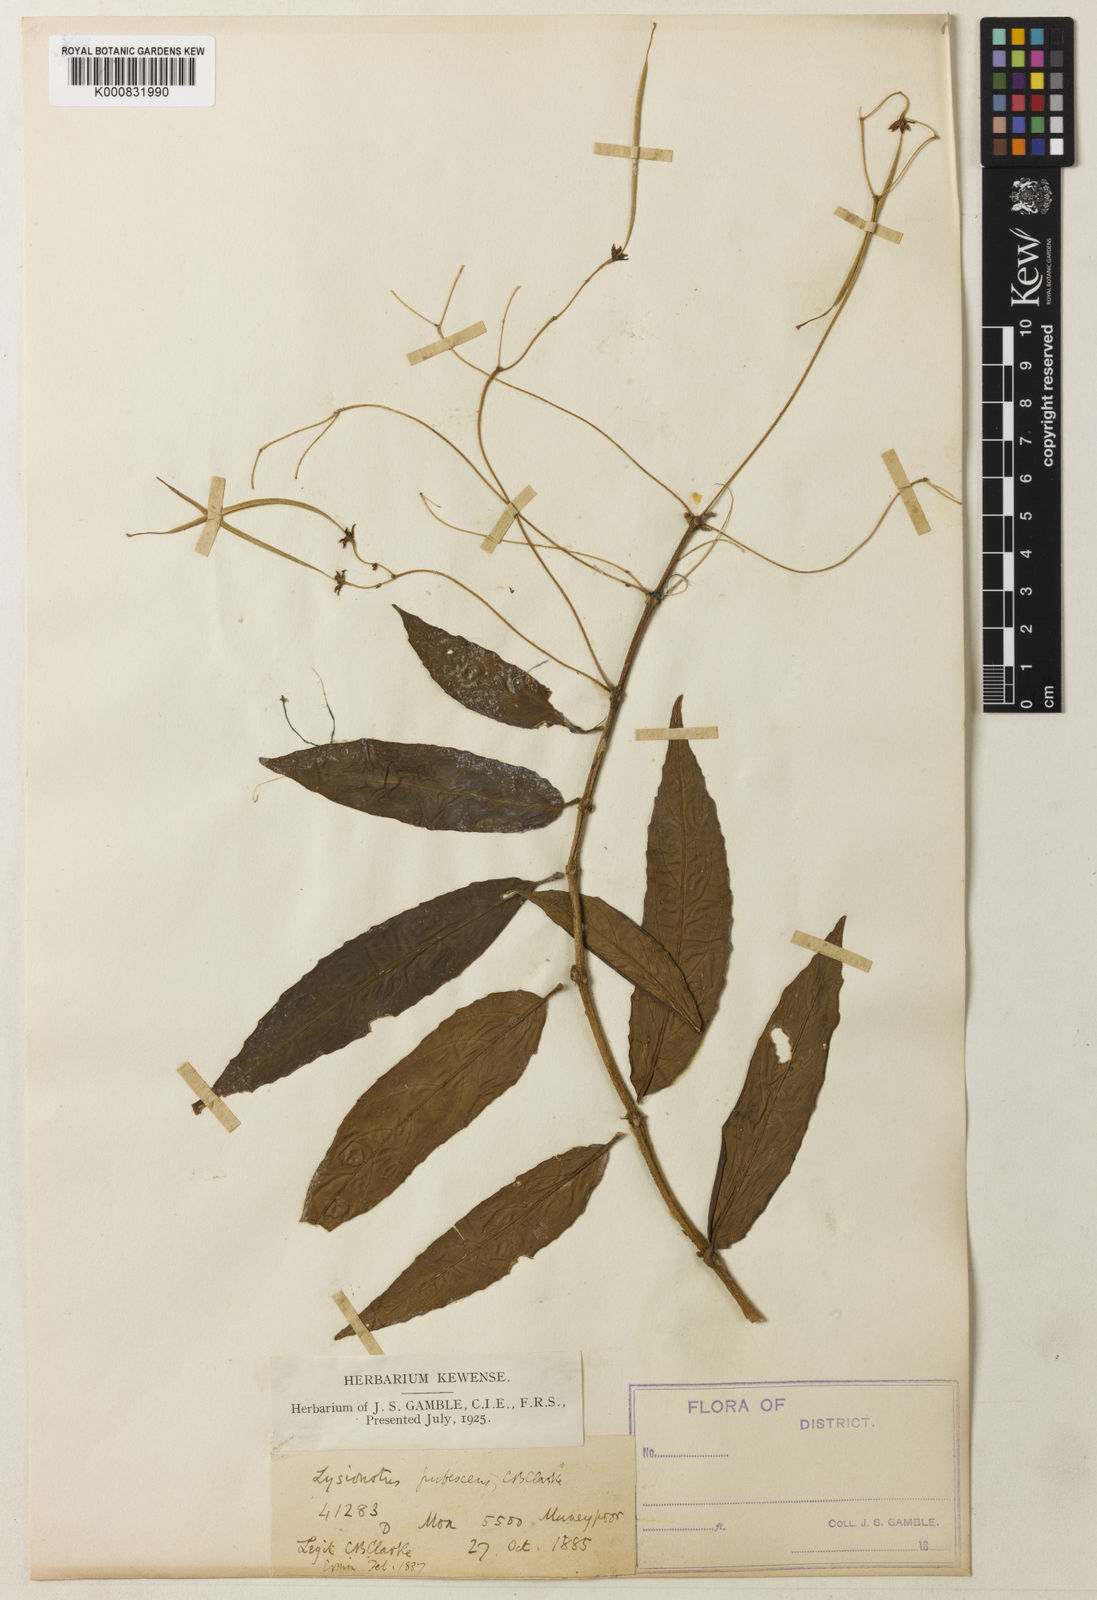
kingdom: Plantae
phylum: Tracheophyta
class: Magnoliopsida
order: Lamiales
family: Gesneriaceae
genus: Lysionotus
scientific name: Lysionotus pubescens
